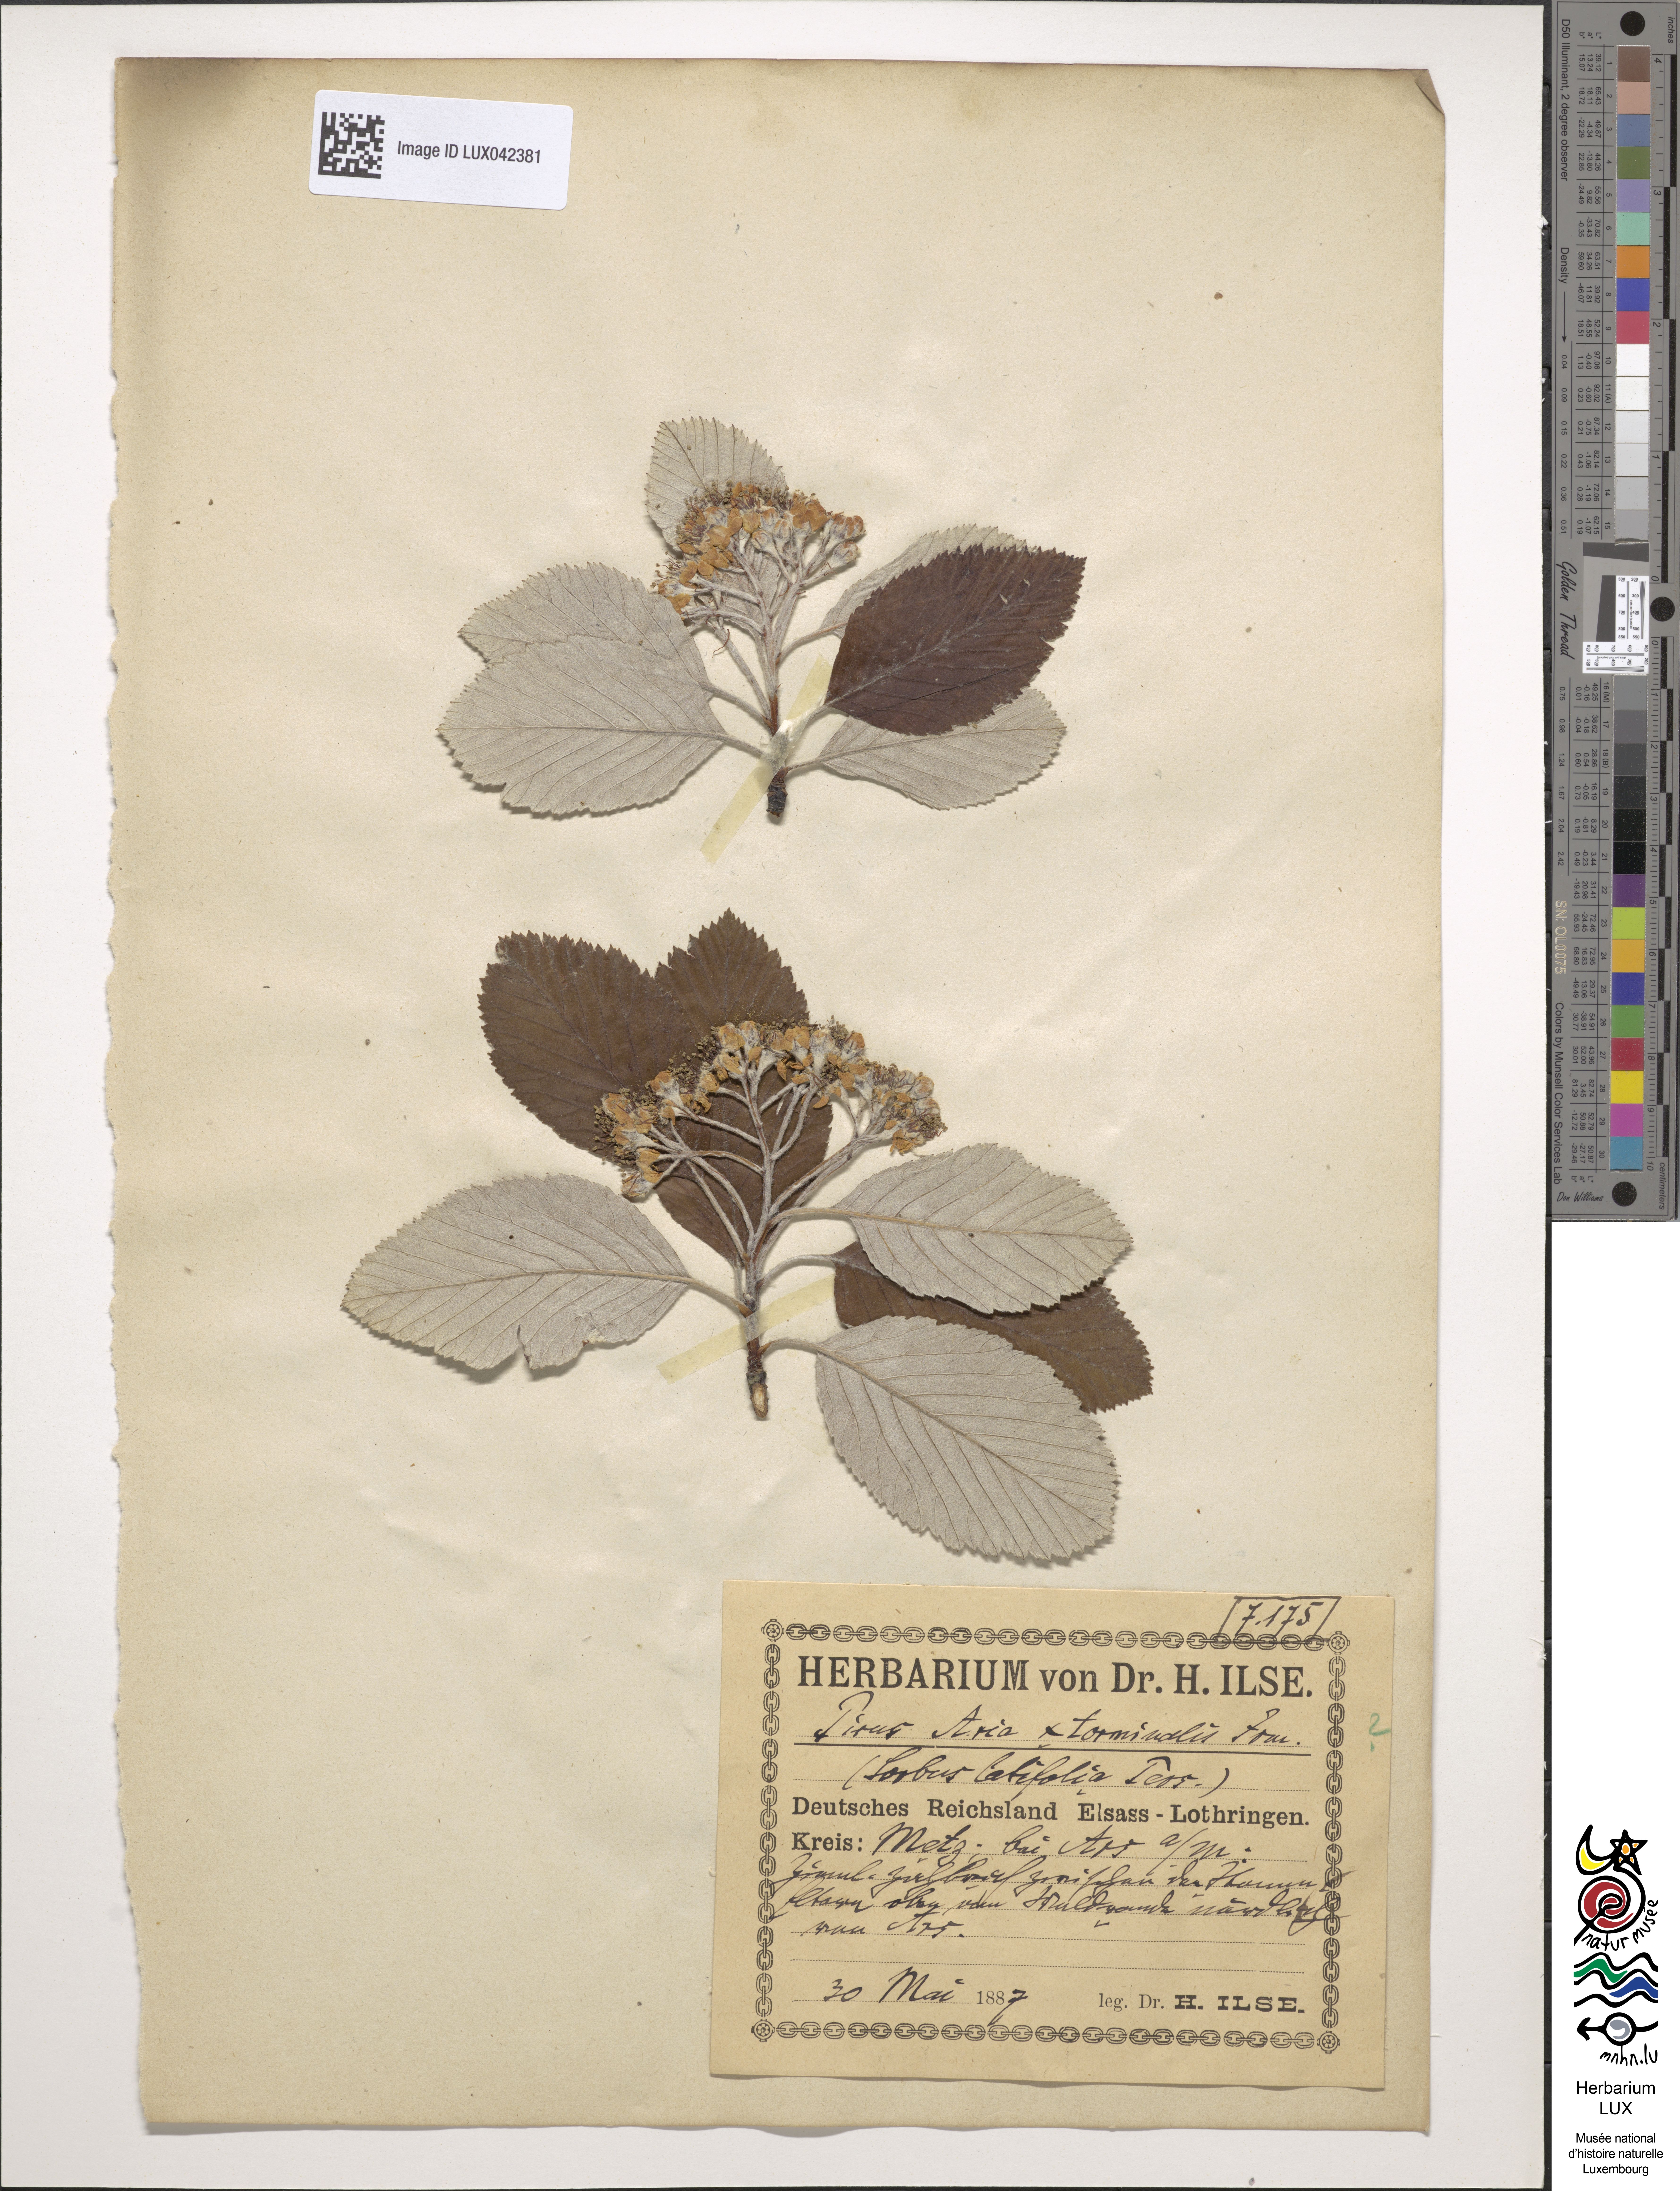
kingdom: Plantae
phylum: Tracheophyta
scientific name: Tracheophyta
